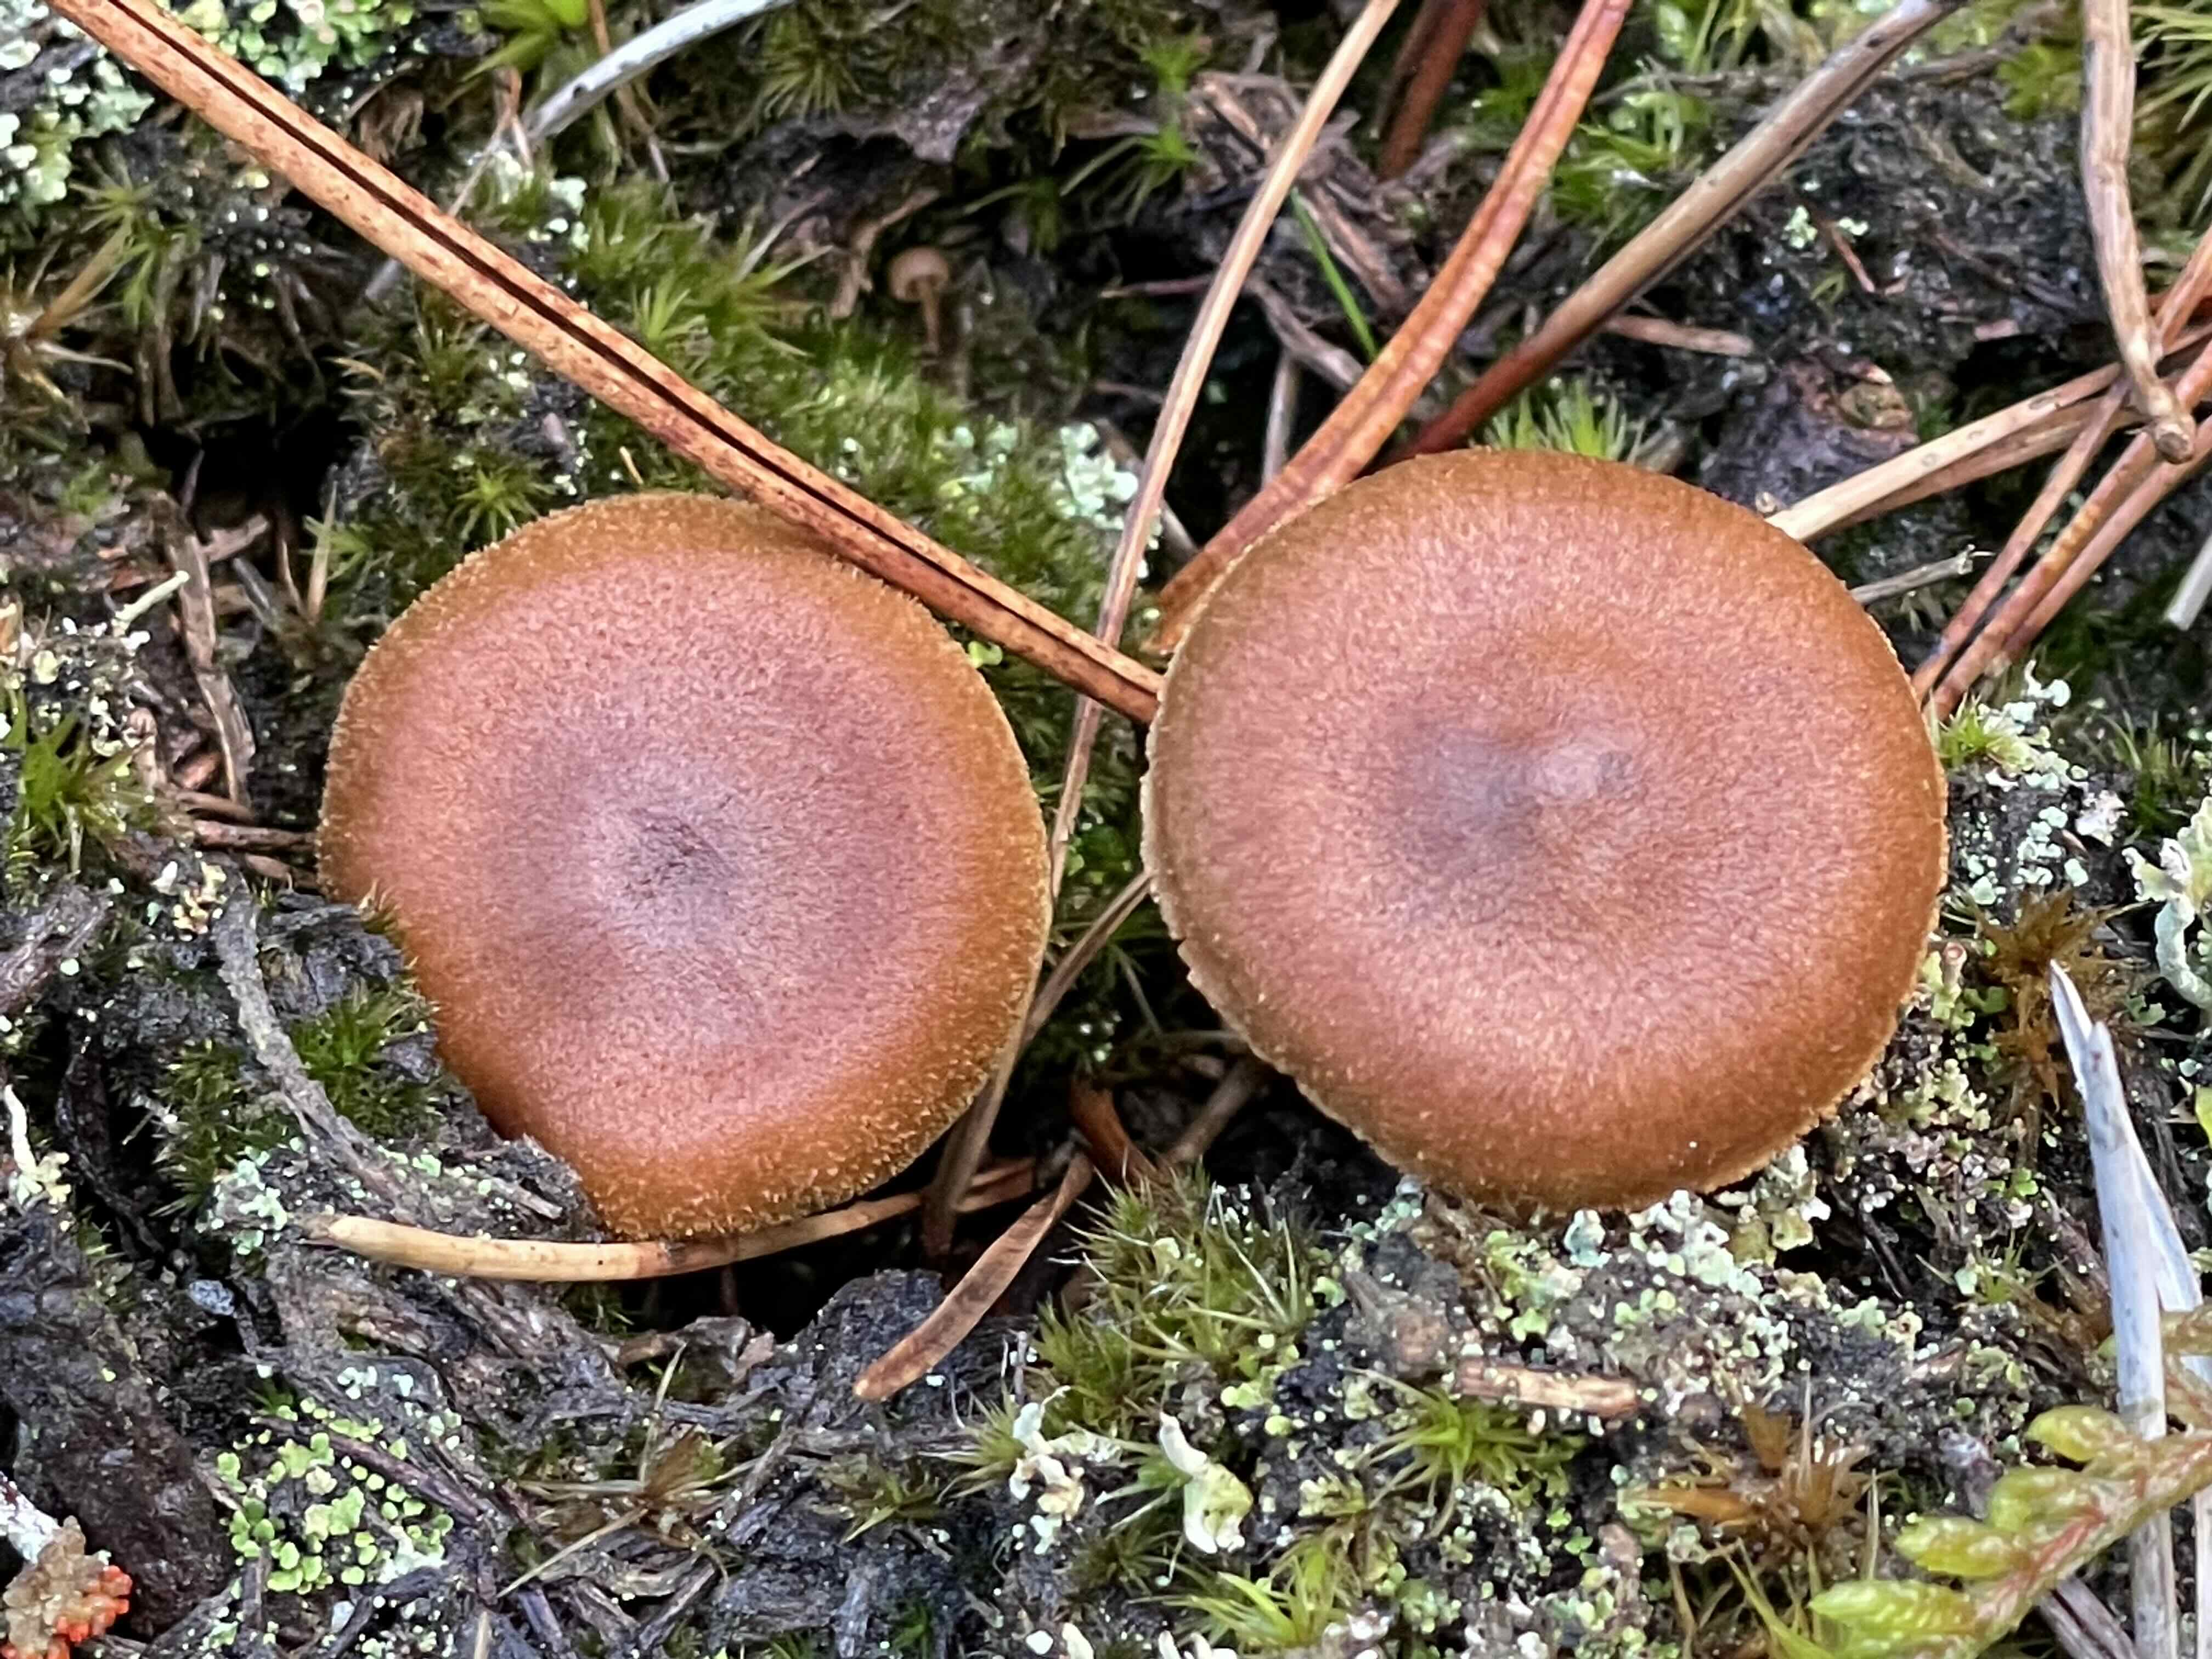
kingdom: Fungi
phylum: Basidiomycota
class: Agaricomycetes
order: Agaricales
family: Cortinariaceae
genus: Cortinarius
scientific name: Cortinarius uliginosus
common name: mose-slørhat
